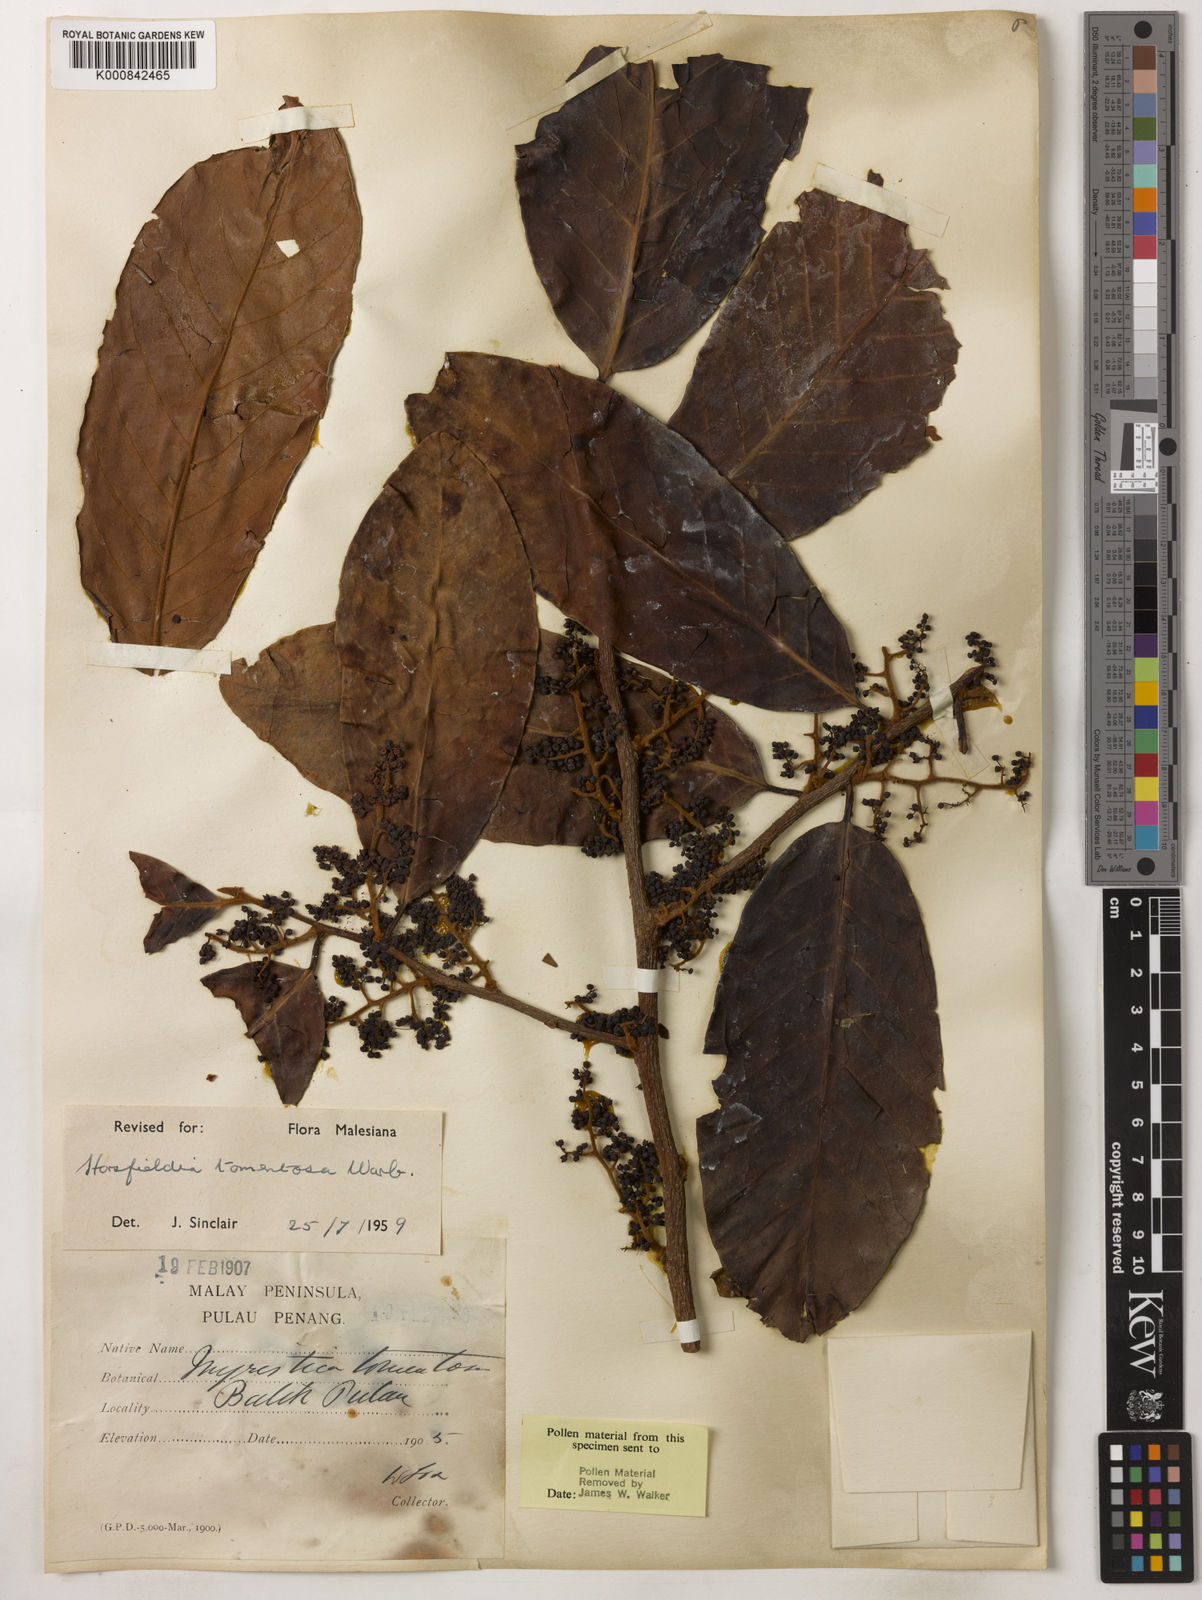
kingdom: Plantae
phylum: Tracheophyta
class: Magnoliopsida
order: Magnoliales
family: Myristicaceae
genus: Horsfieldia
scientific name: Horsfieldia tomentosa
